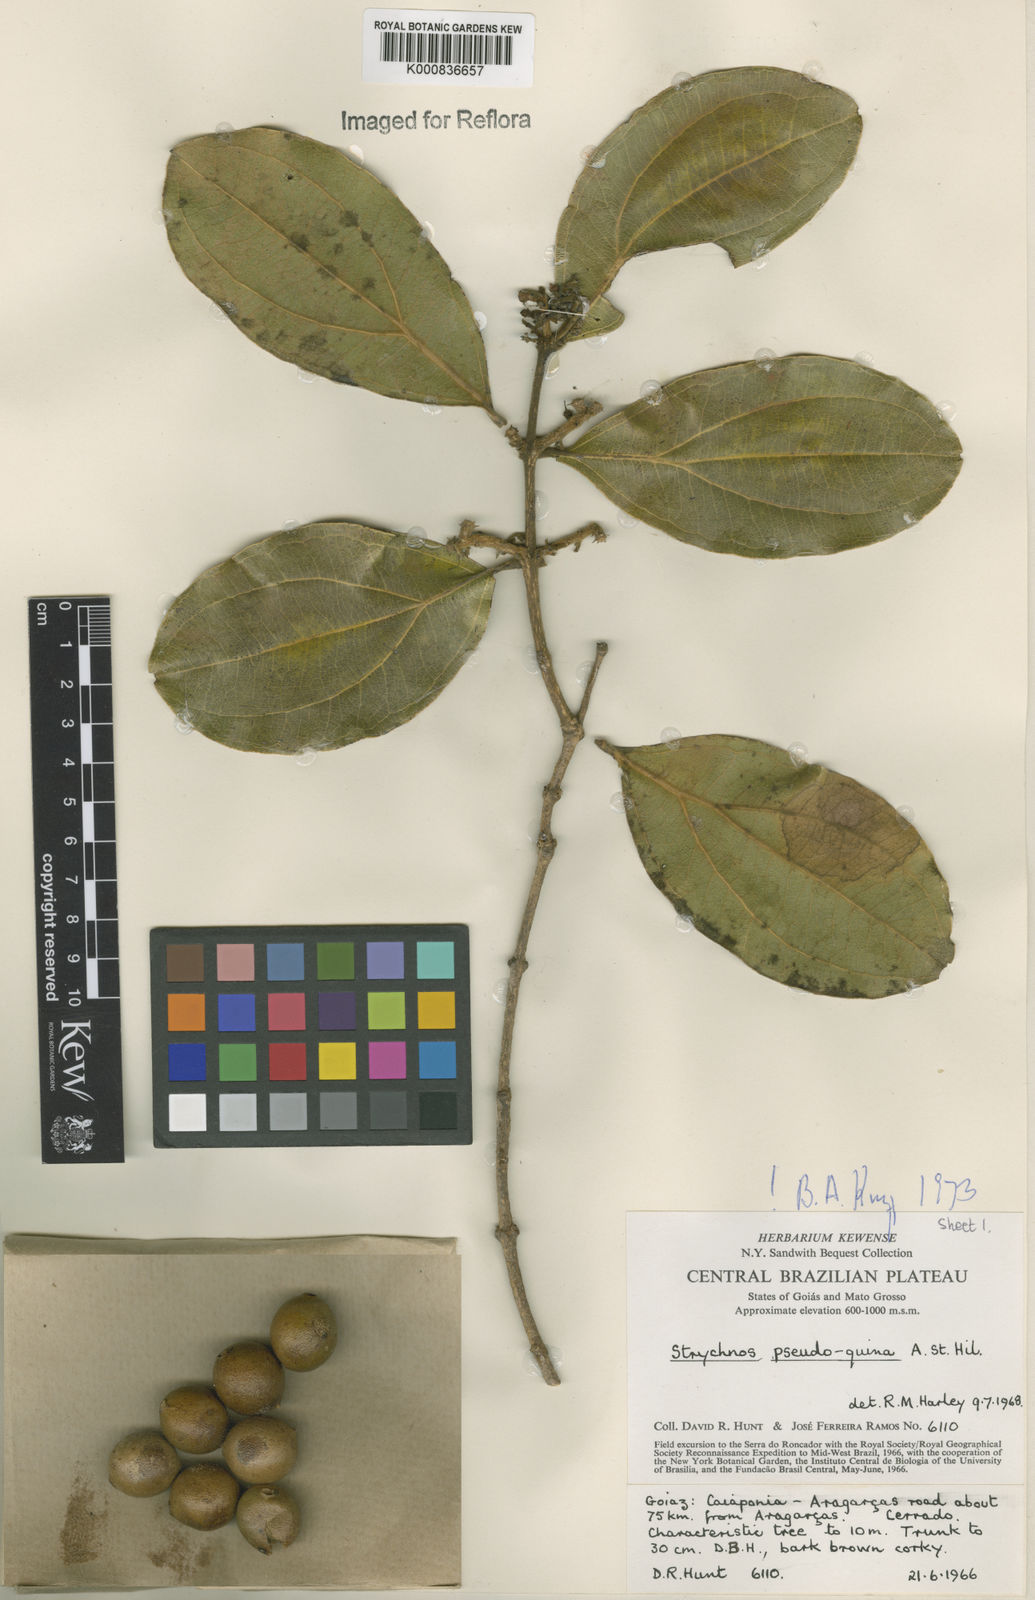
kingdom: Plantae
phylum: Tracheophyta
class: Magnoliopsida
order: Gentianales
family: Loganiaceae
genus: Strychnos
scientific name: Strychnos pseudoquina
